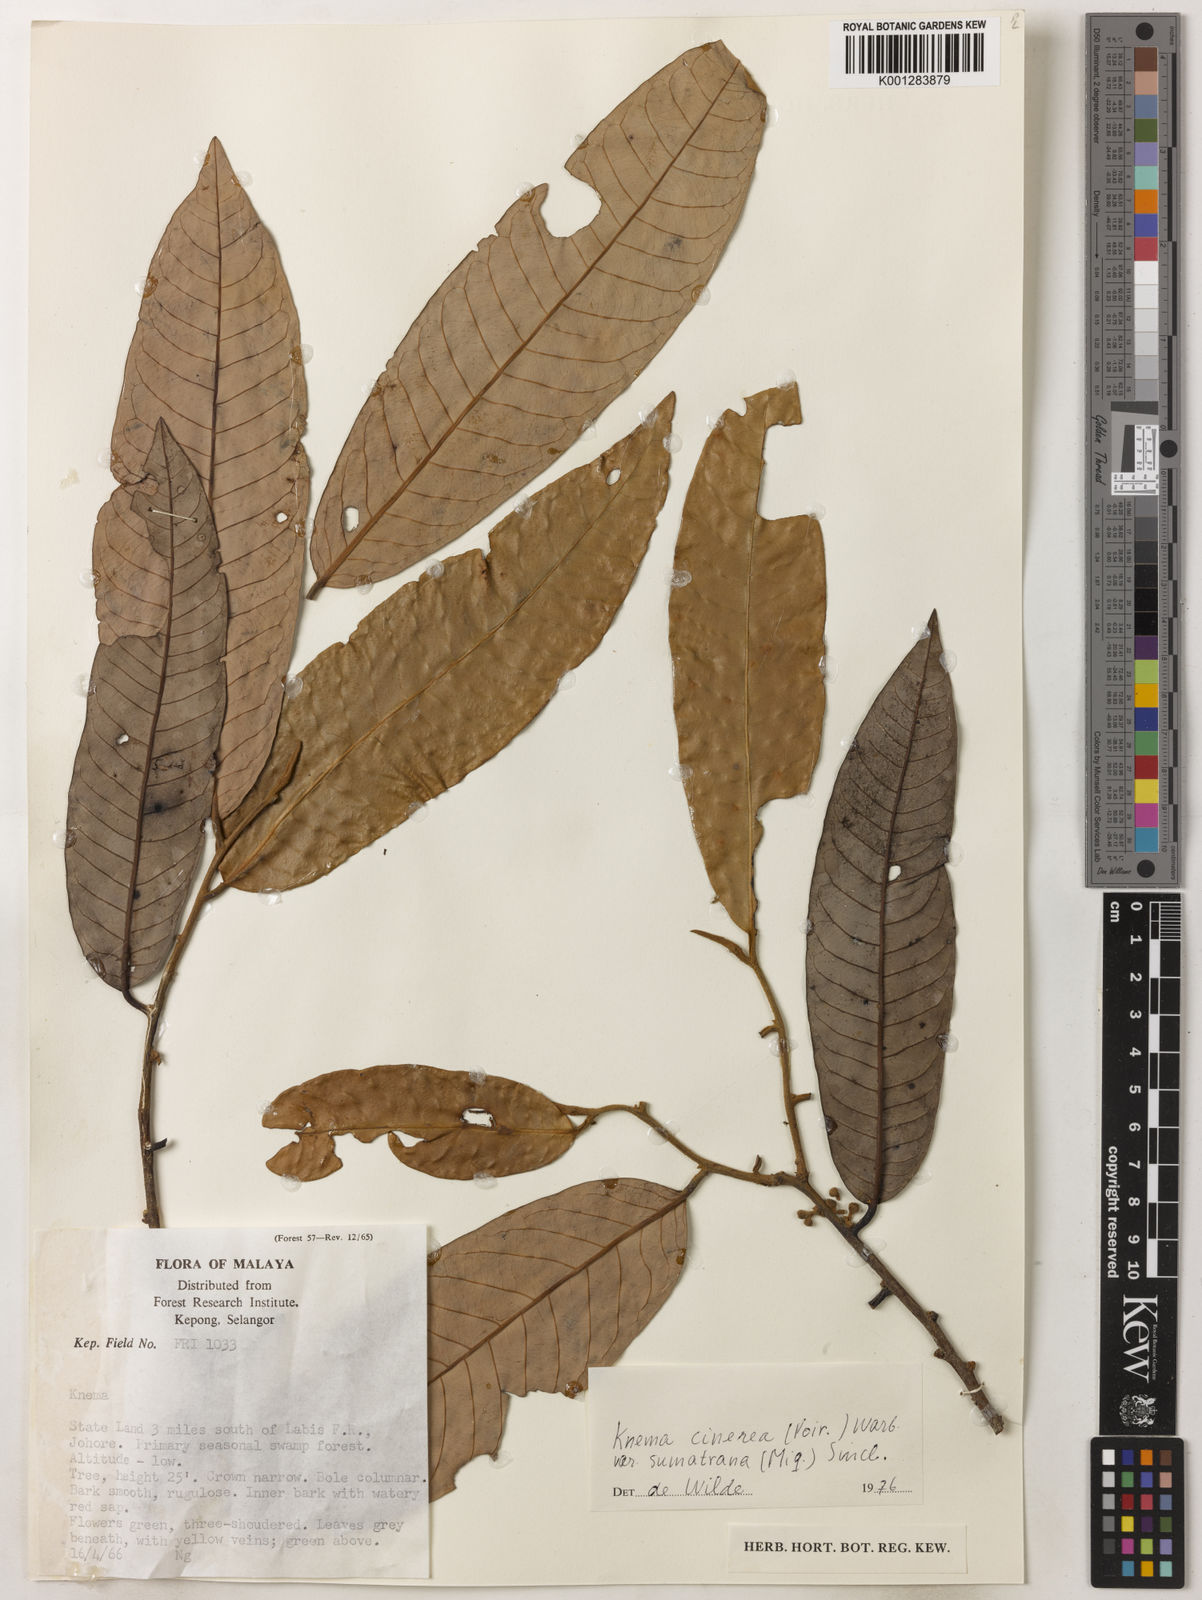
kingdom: Plantae
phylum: Tracheophyta
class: Magnoliopsida
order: Magnoliales
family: Myristicaceae
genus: Knema
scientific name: Knema
